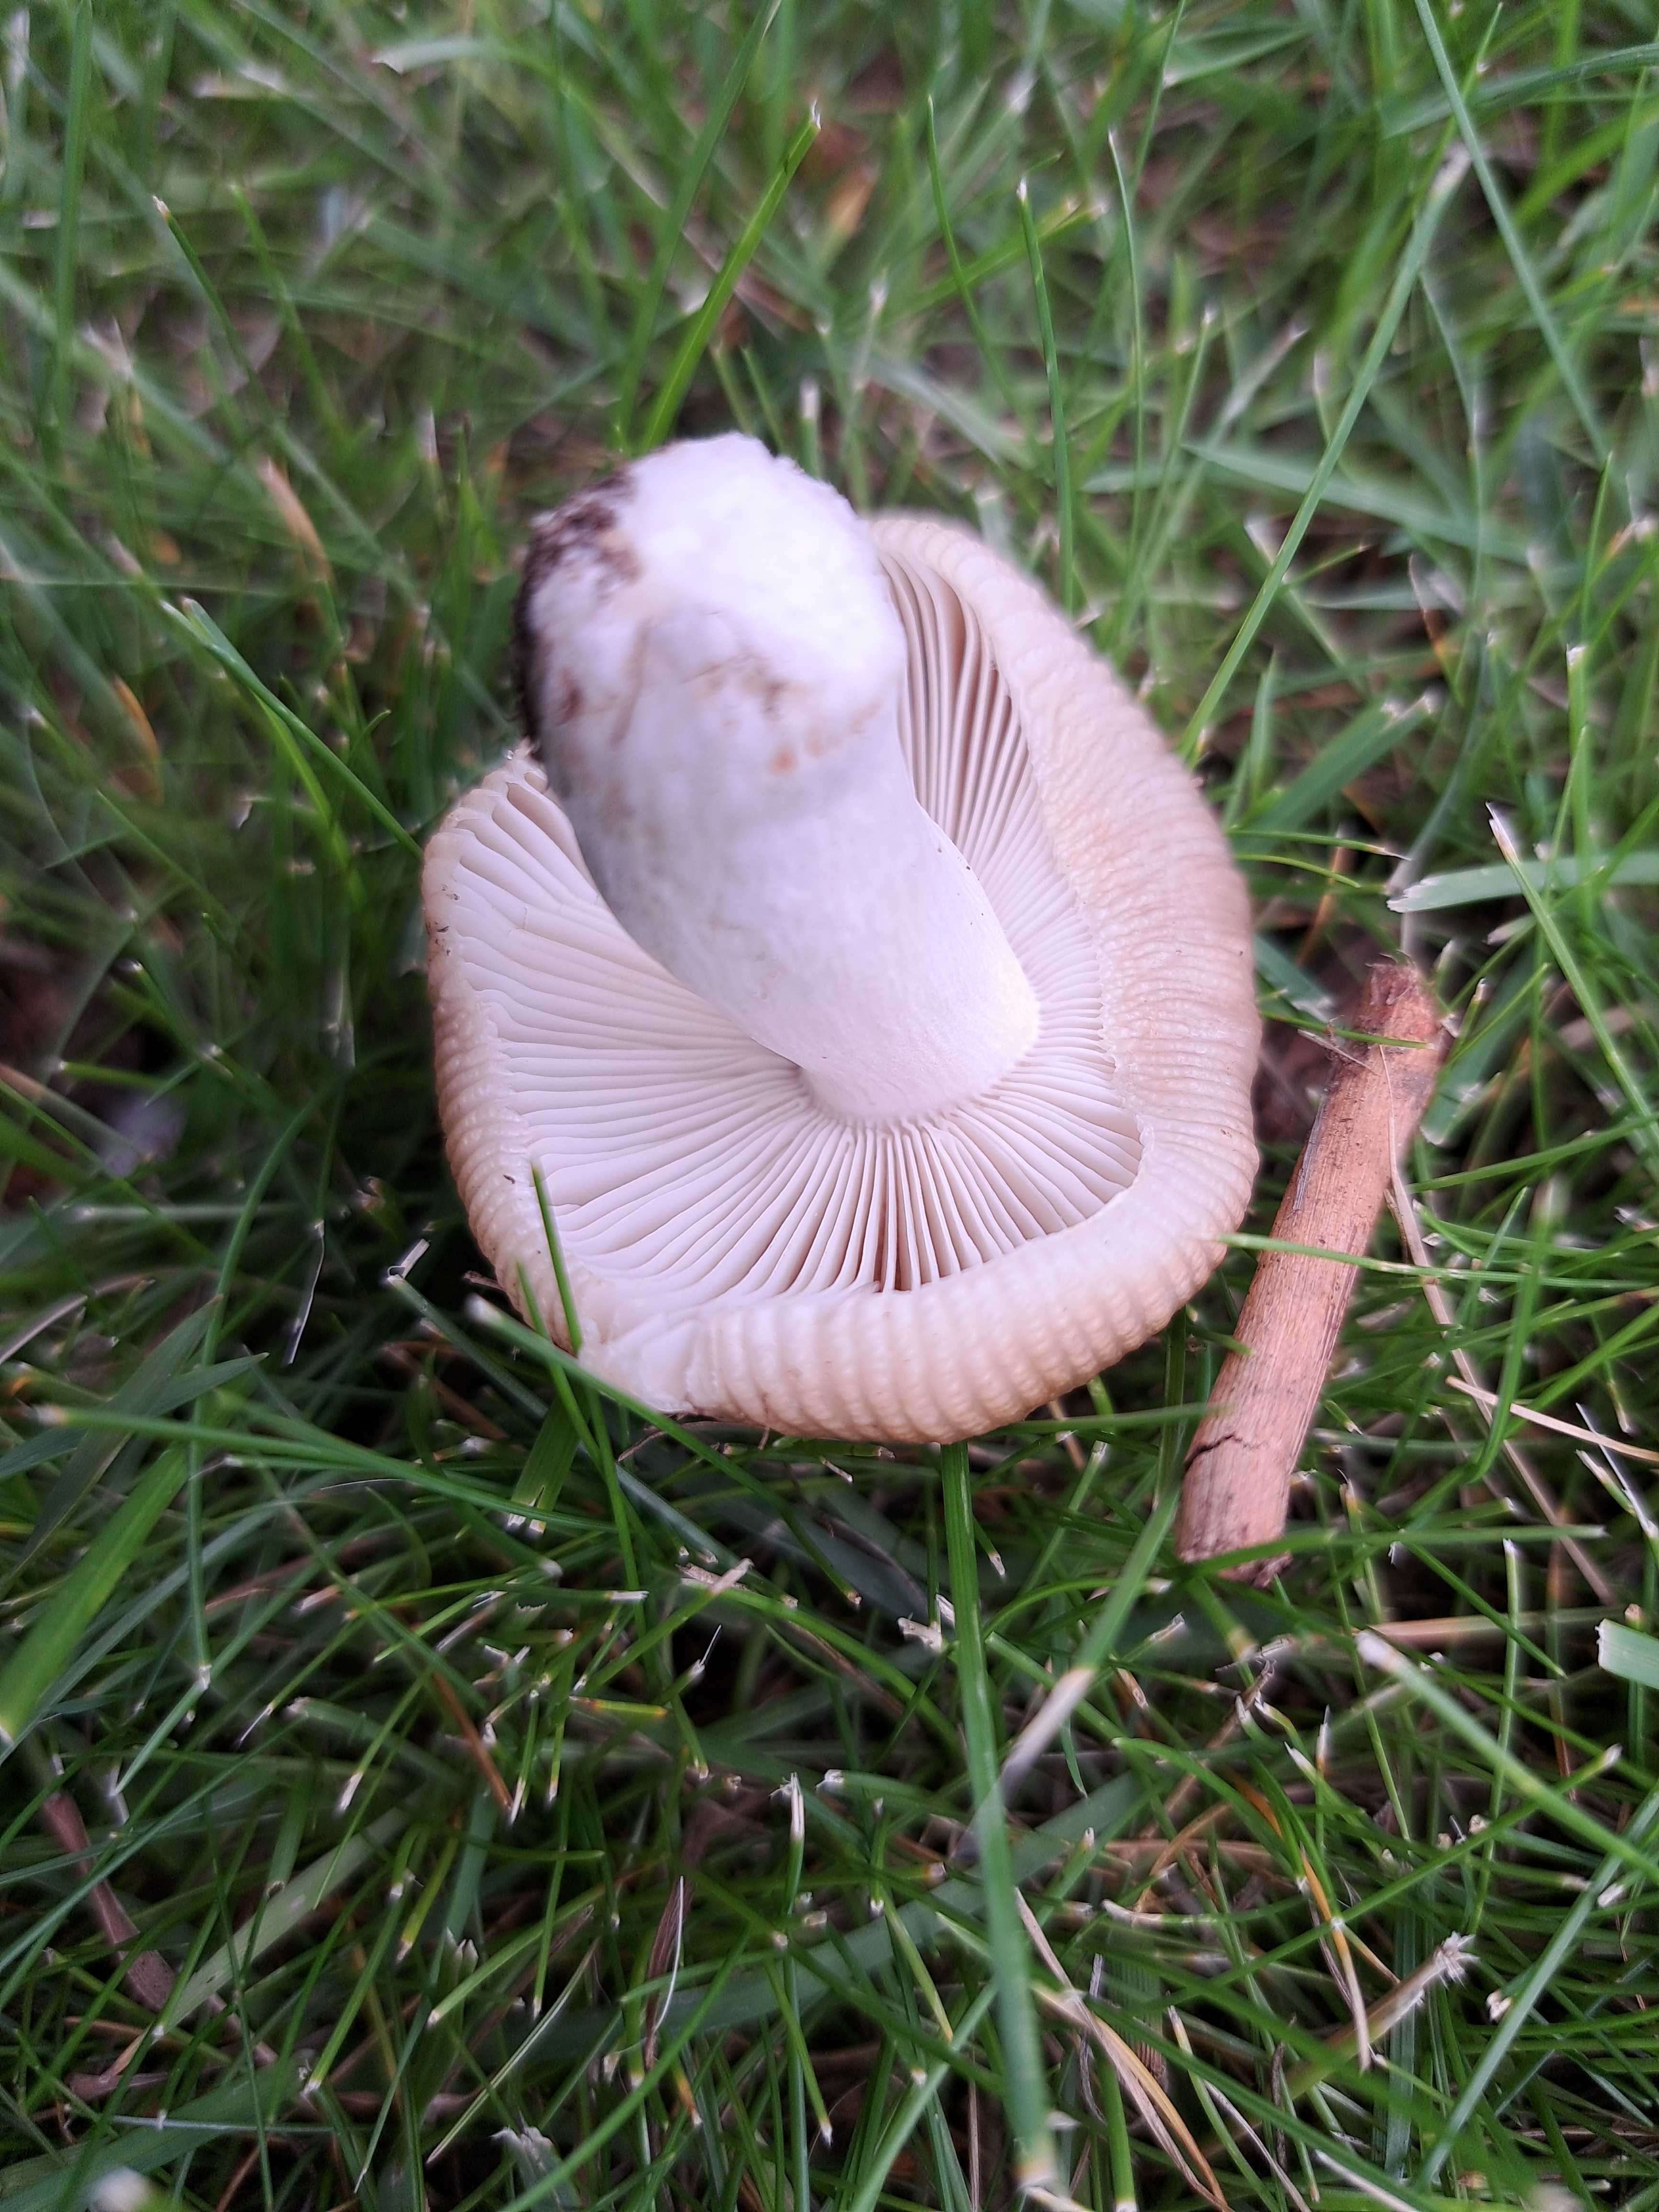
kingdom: Fungi
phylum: Basidiomycota
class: Agaricomycetes
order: Russulales
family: Russulaceae
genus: Russula
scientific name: Russula recondita
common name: mild kam-skørhat
